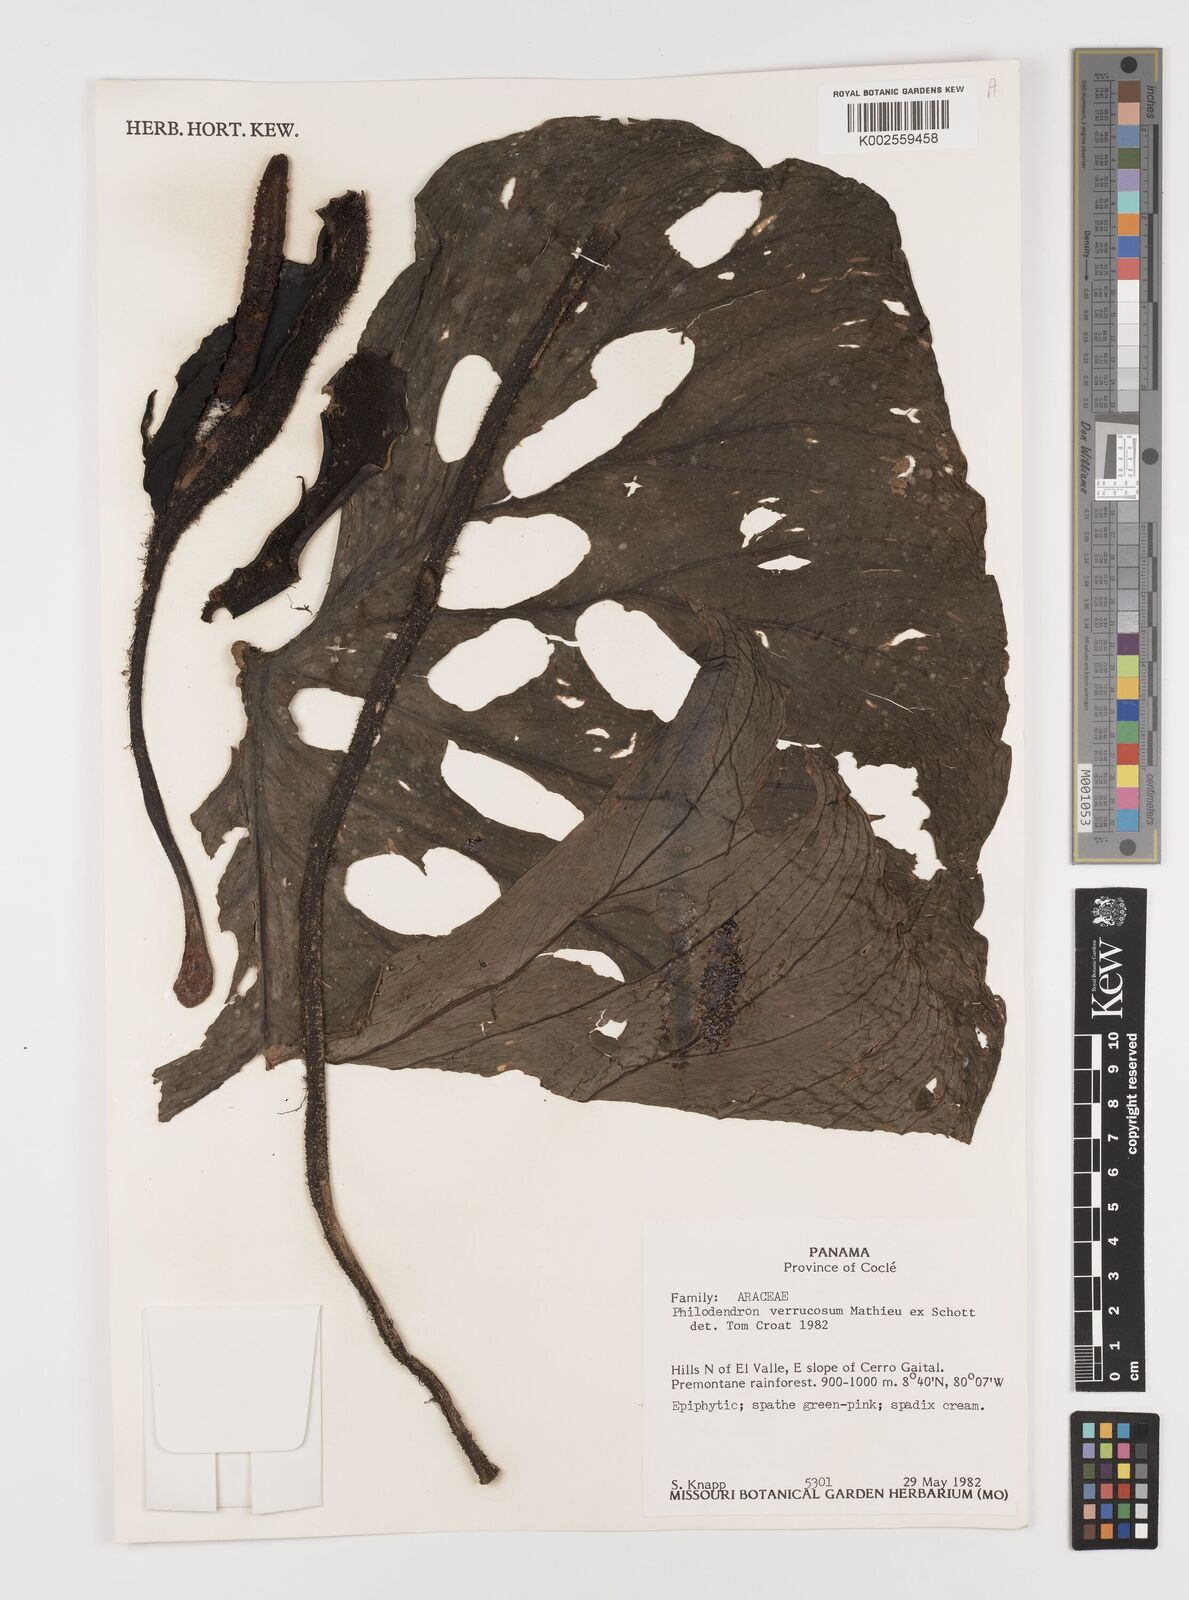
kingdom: Plantae
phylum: Tracheophyta
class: Liliopsida
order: Alismatales
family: Araceae
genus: Philodendron
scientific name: Philodendron verrucosum
